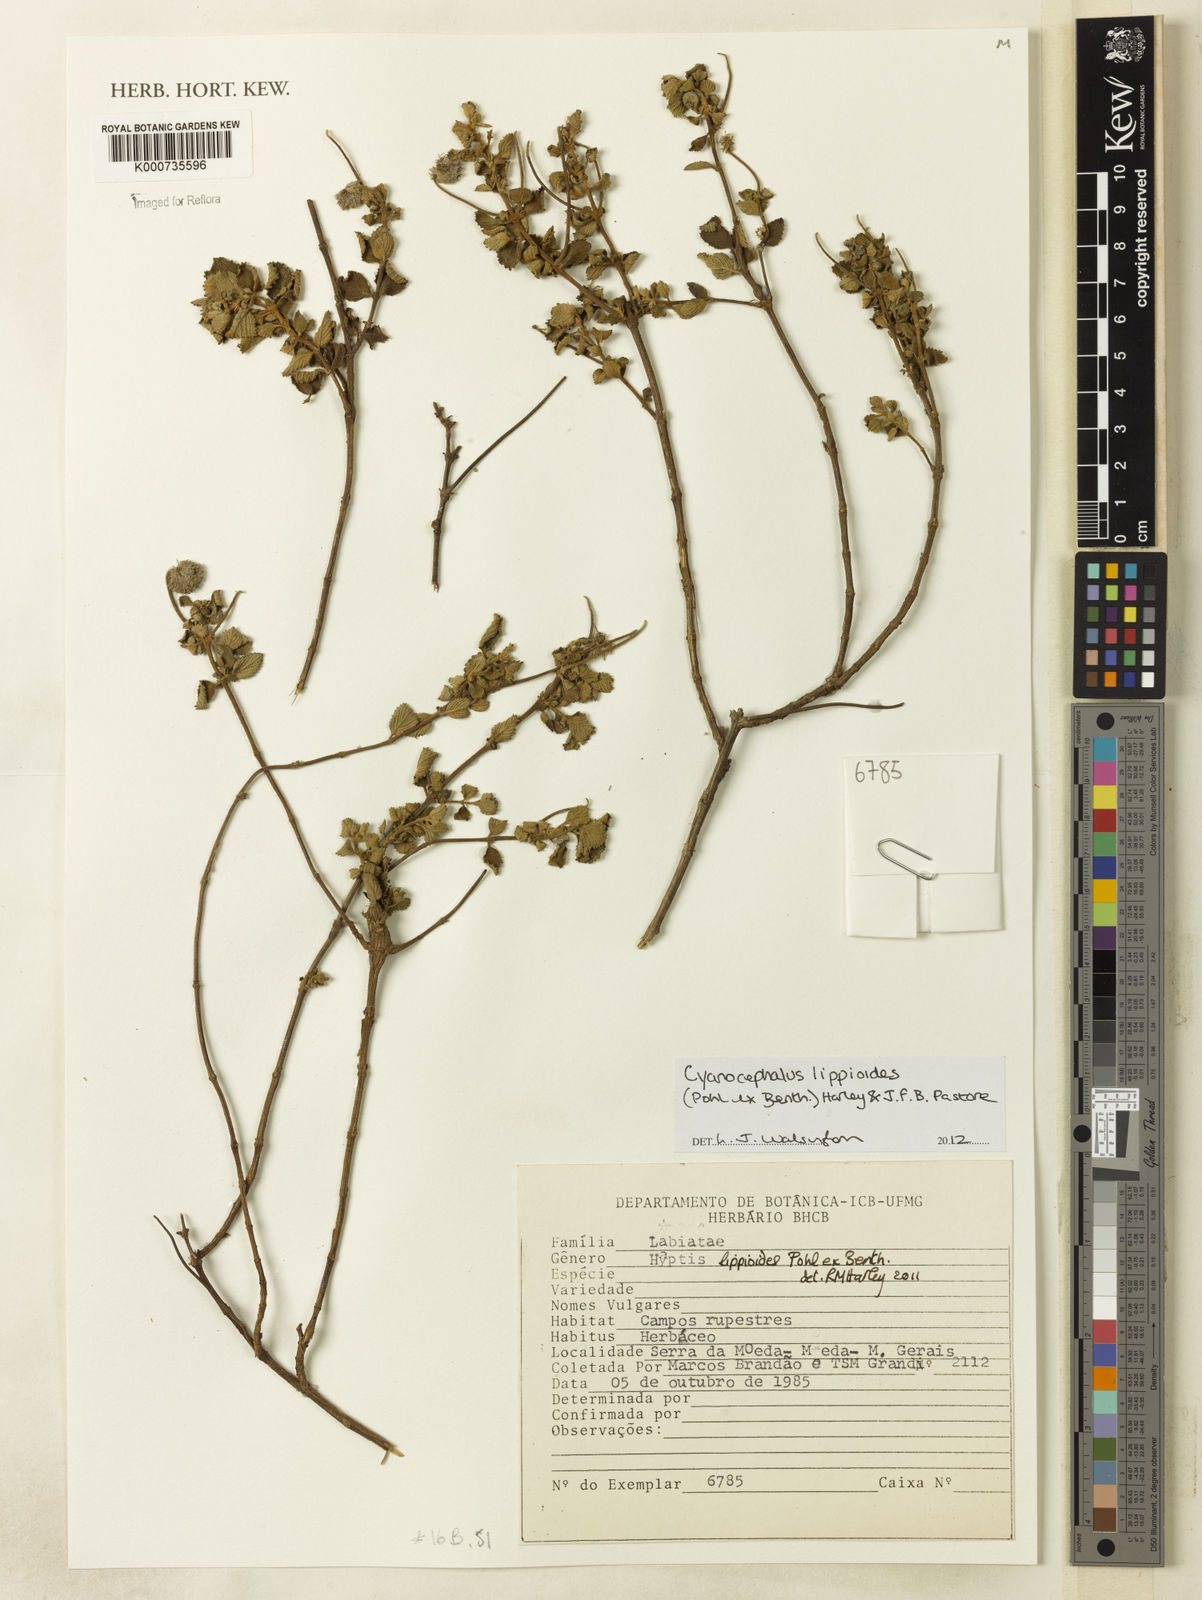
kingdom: Plantae
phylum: Tracheophyta
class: Magnoliopsida
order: Lamiales
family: Lamiaceae
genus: Cyanocephalus
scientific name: Cyanocephalus lippioides
